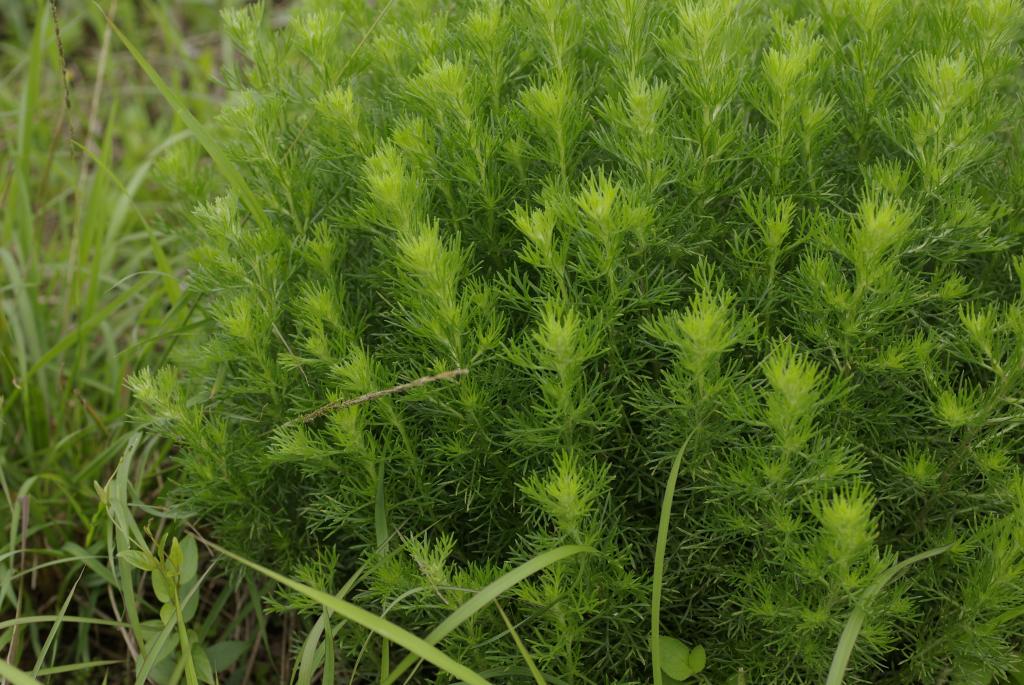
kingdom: Plantae
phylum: Tracheophyta
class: Magnoliopsida
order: Asterales
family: Asteraceae
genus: Artemisia
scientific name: Artemisia capillaris
